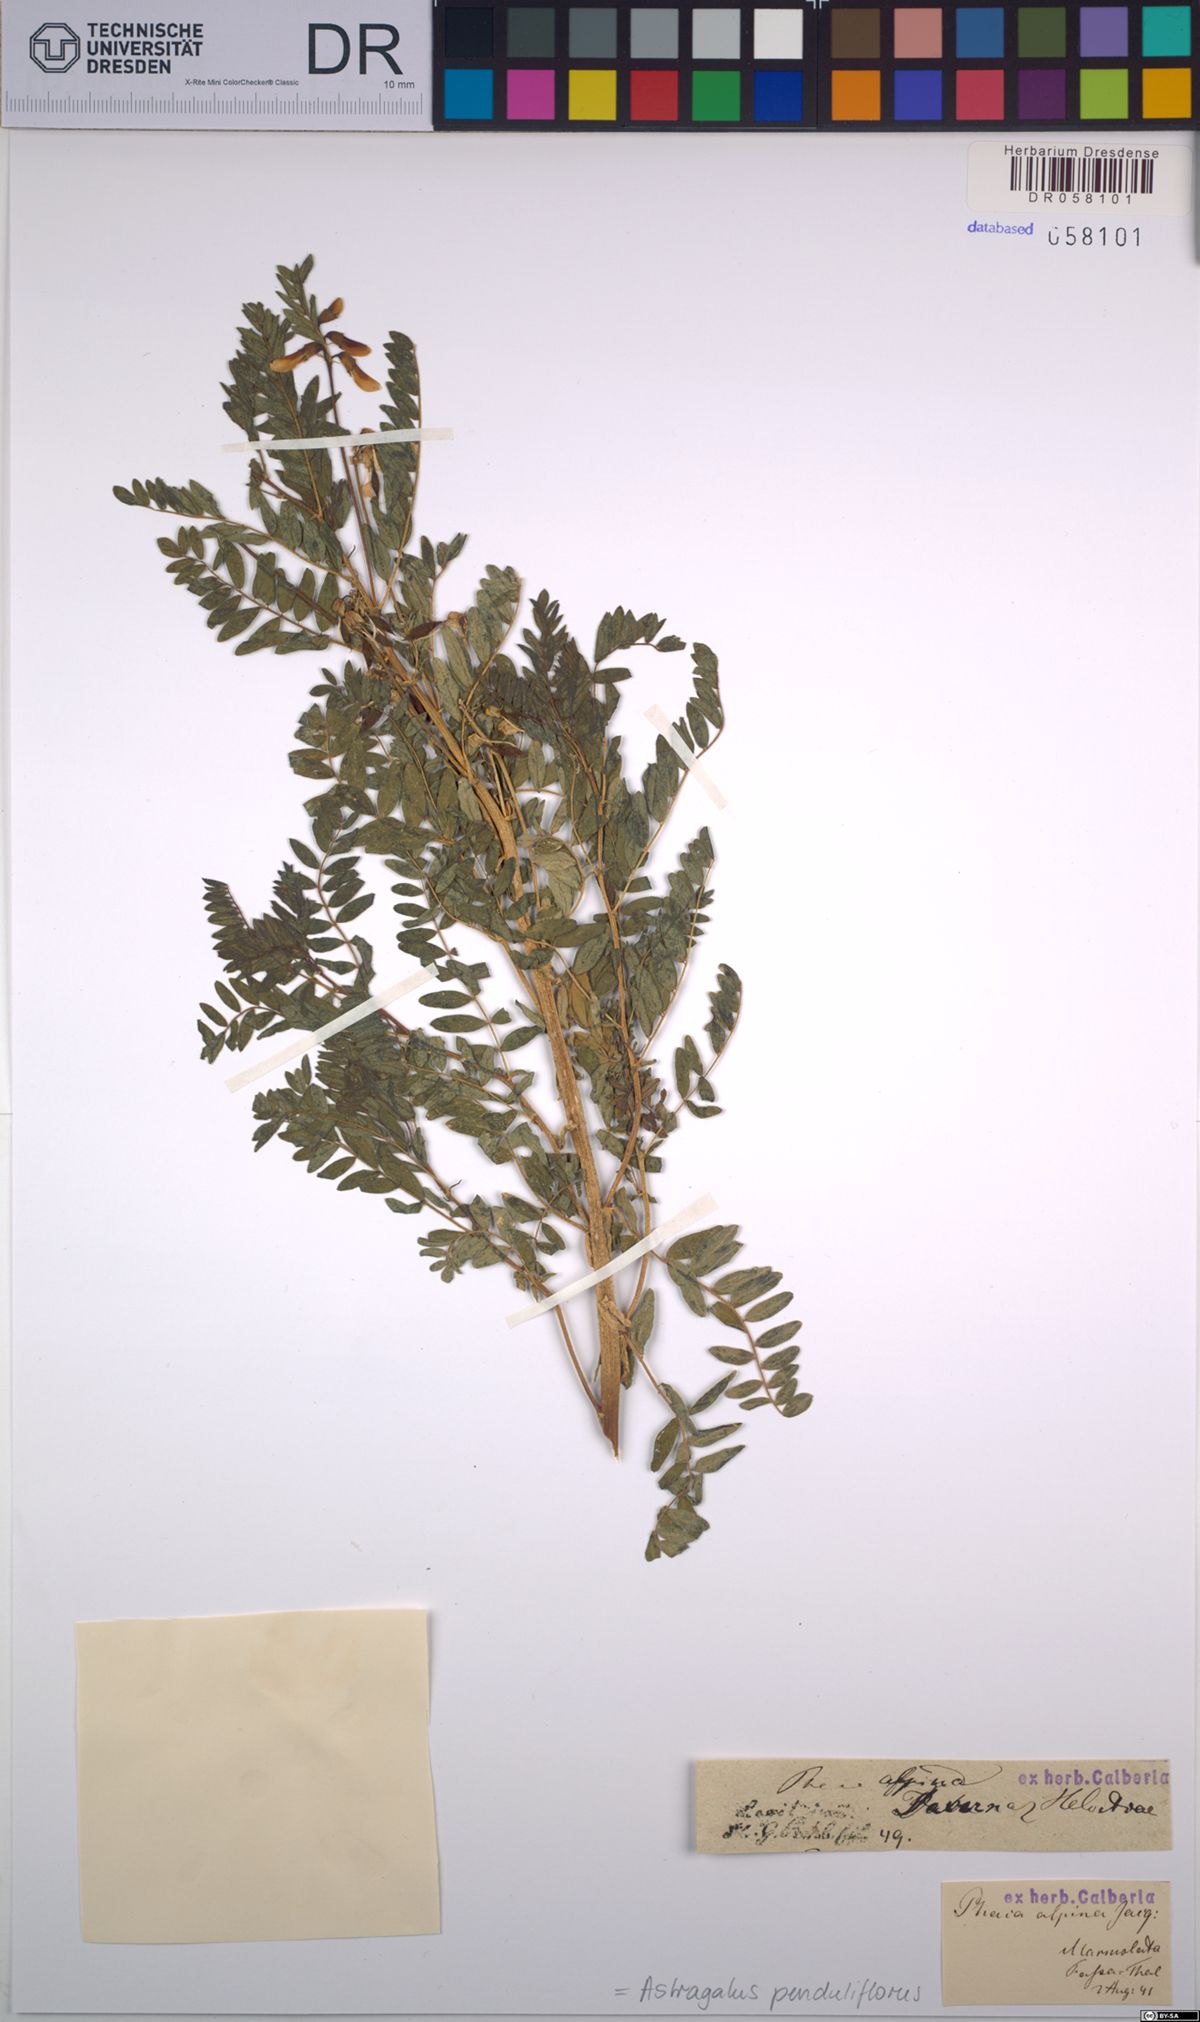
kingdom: Plantae
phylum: Tracheophyta
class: Magnoliopsida
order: Fabales
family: Fabaceae
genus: Astragalus
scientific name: Astragalus penduliflorus
